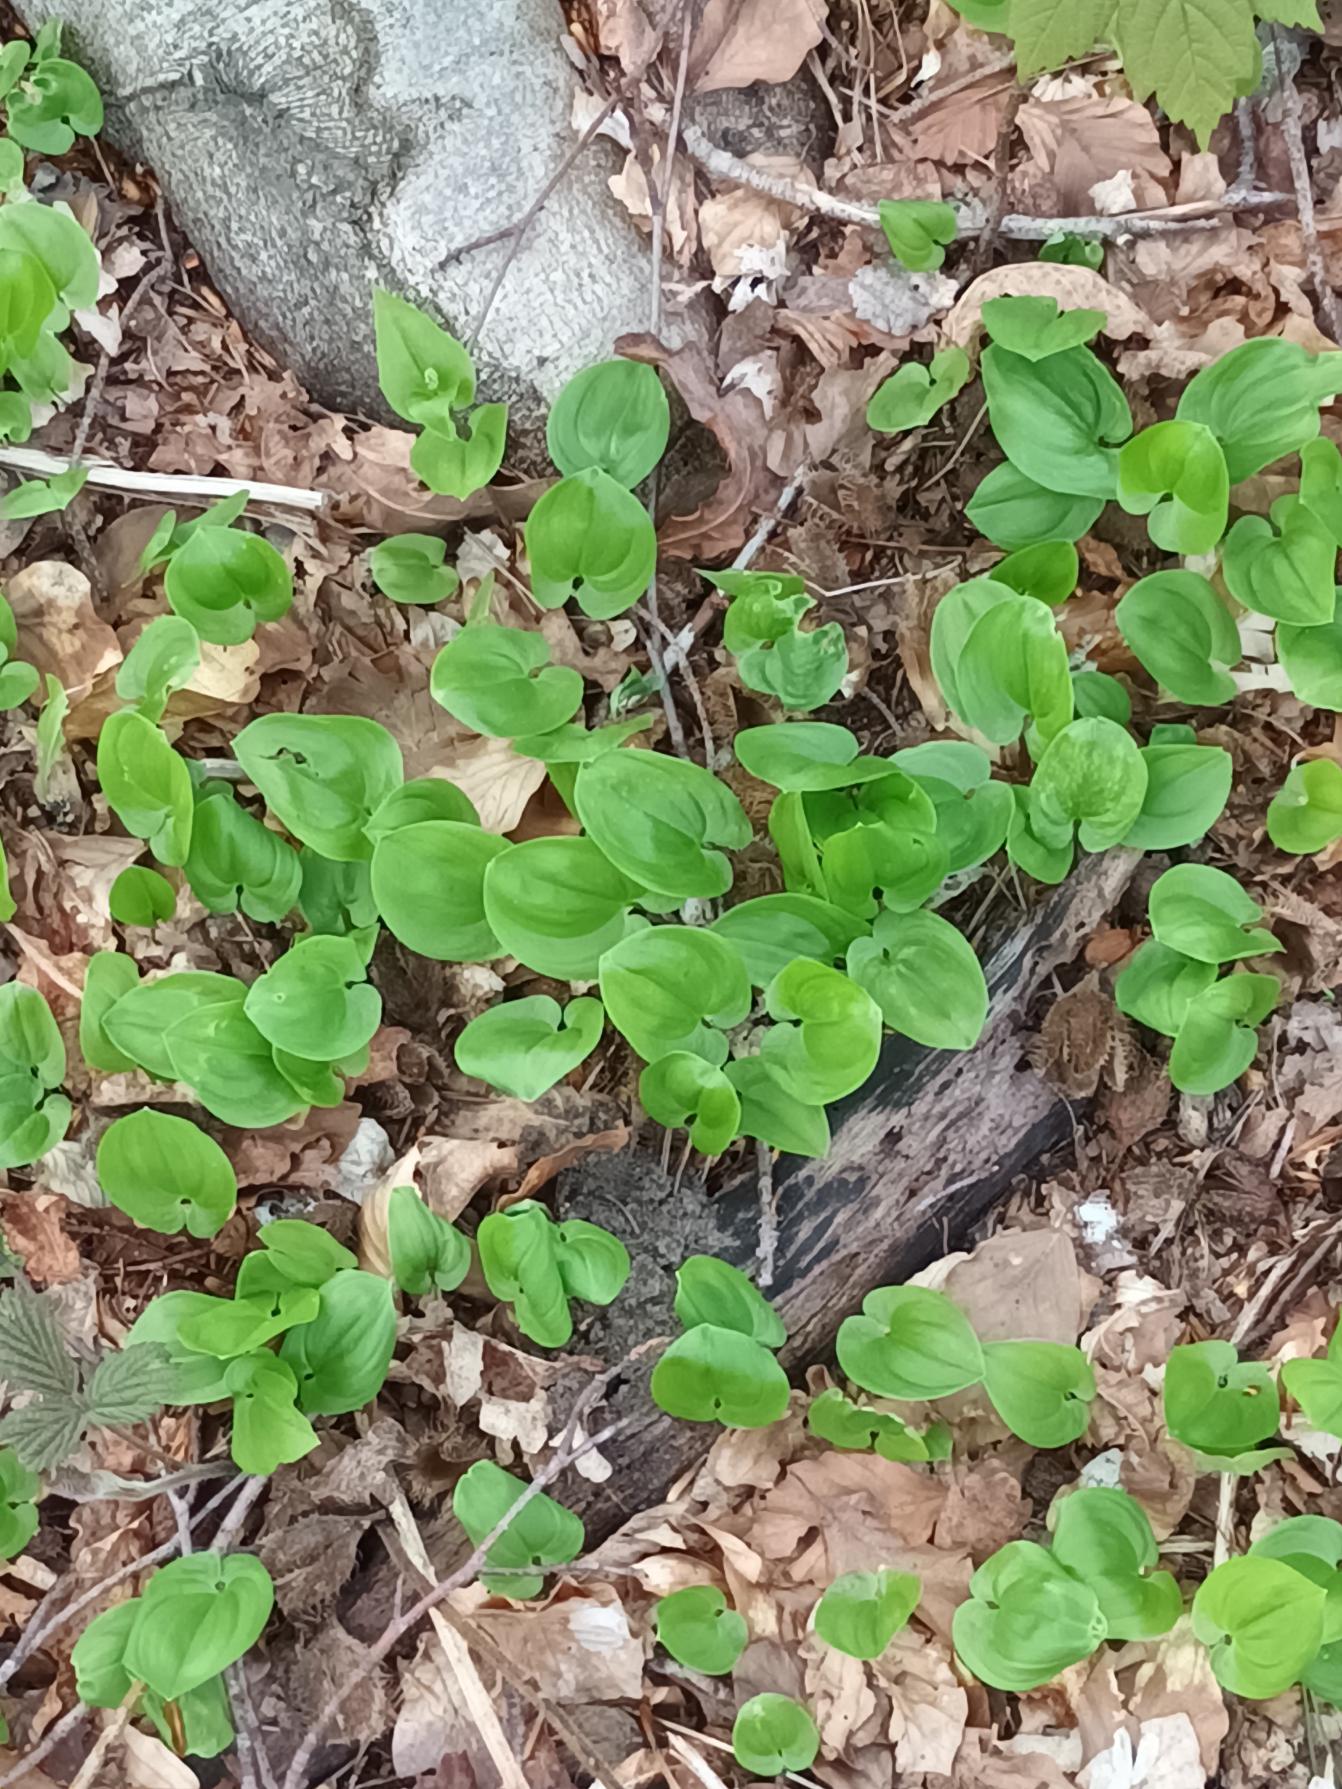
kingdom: Plantae
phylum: Tracheophyta
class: Liliopsida
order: Asparagales
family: Asparagaceae
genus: Maianthemum
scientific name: Maianthemum bifolium
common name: Majblomst
